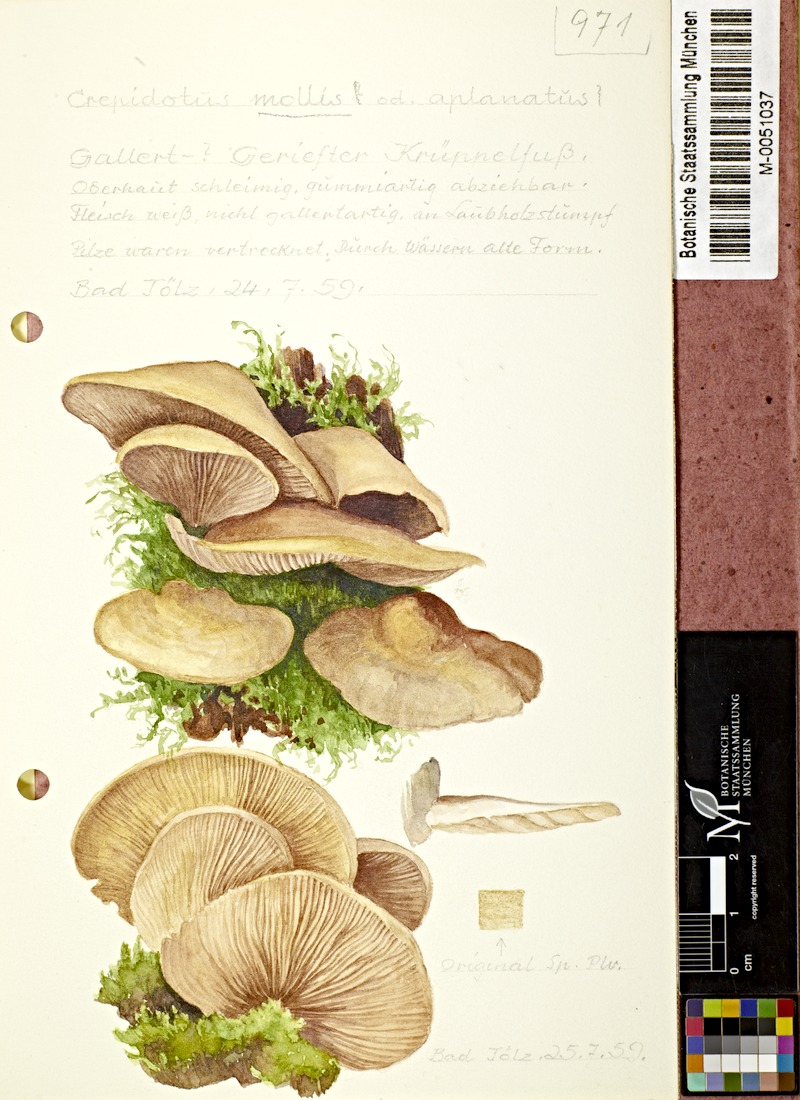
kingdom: Fungi
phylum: Basidiomycota
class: Agaricomycetes
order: Agaricales
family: Crepidotaceae
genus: Crepidotus
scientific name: Crepidotus mollis
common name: Peeling oysterling
